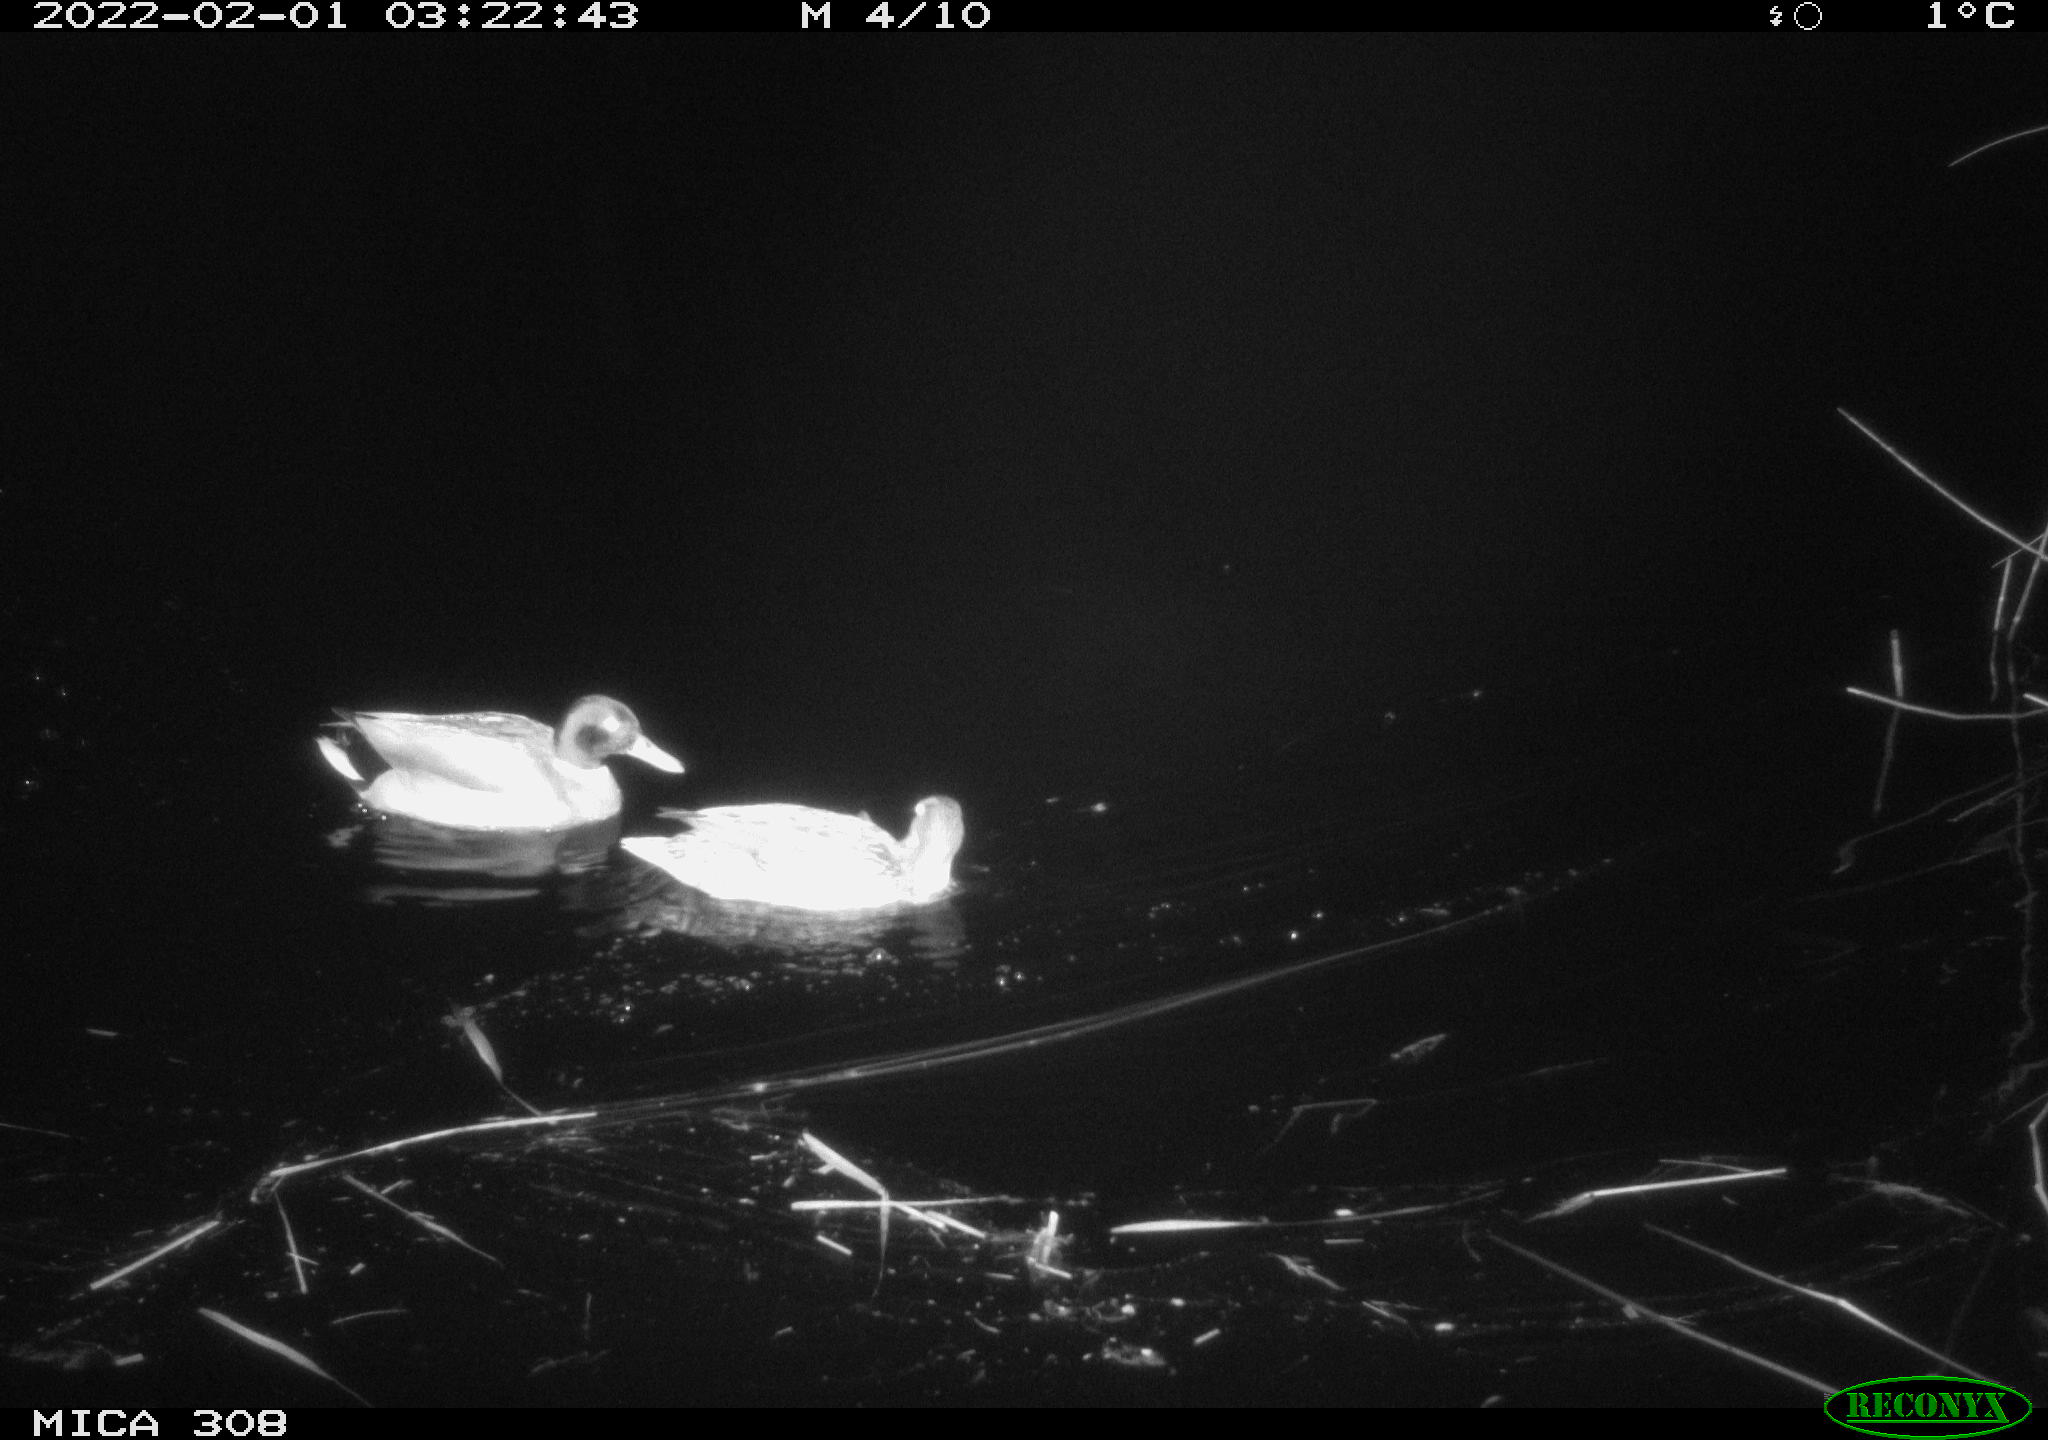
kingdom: Animalia
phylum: Chordata
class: Aves
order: Anseriformes
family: Anatidae
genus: Anas
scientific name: Anas
